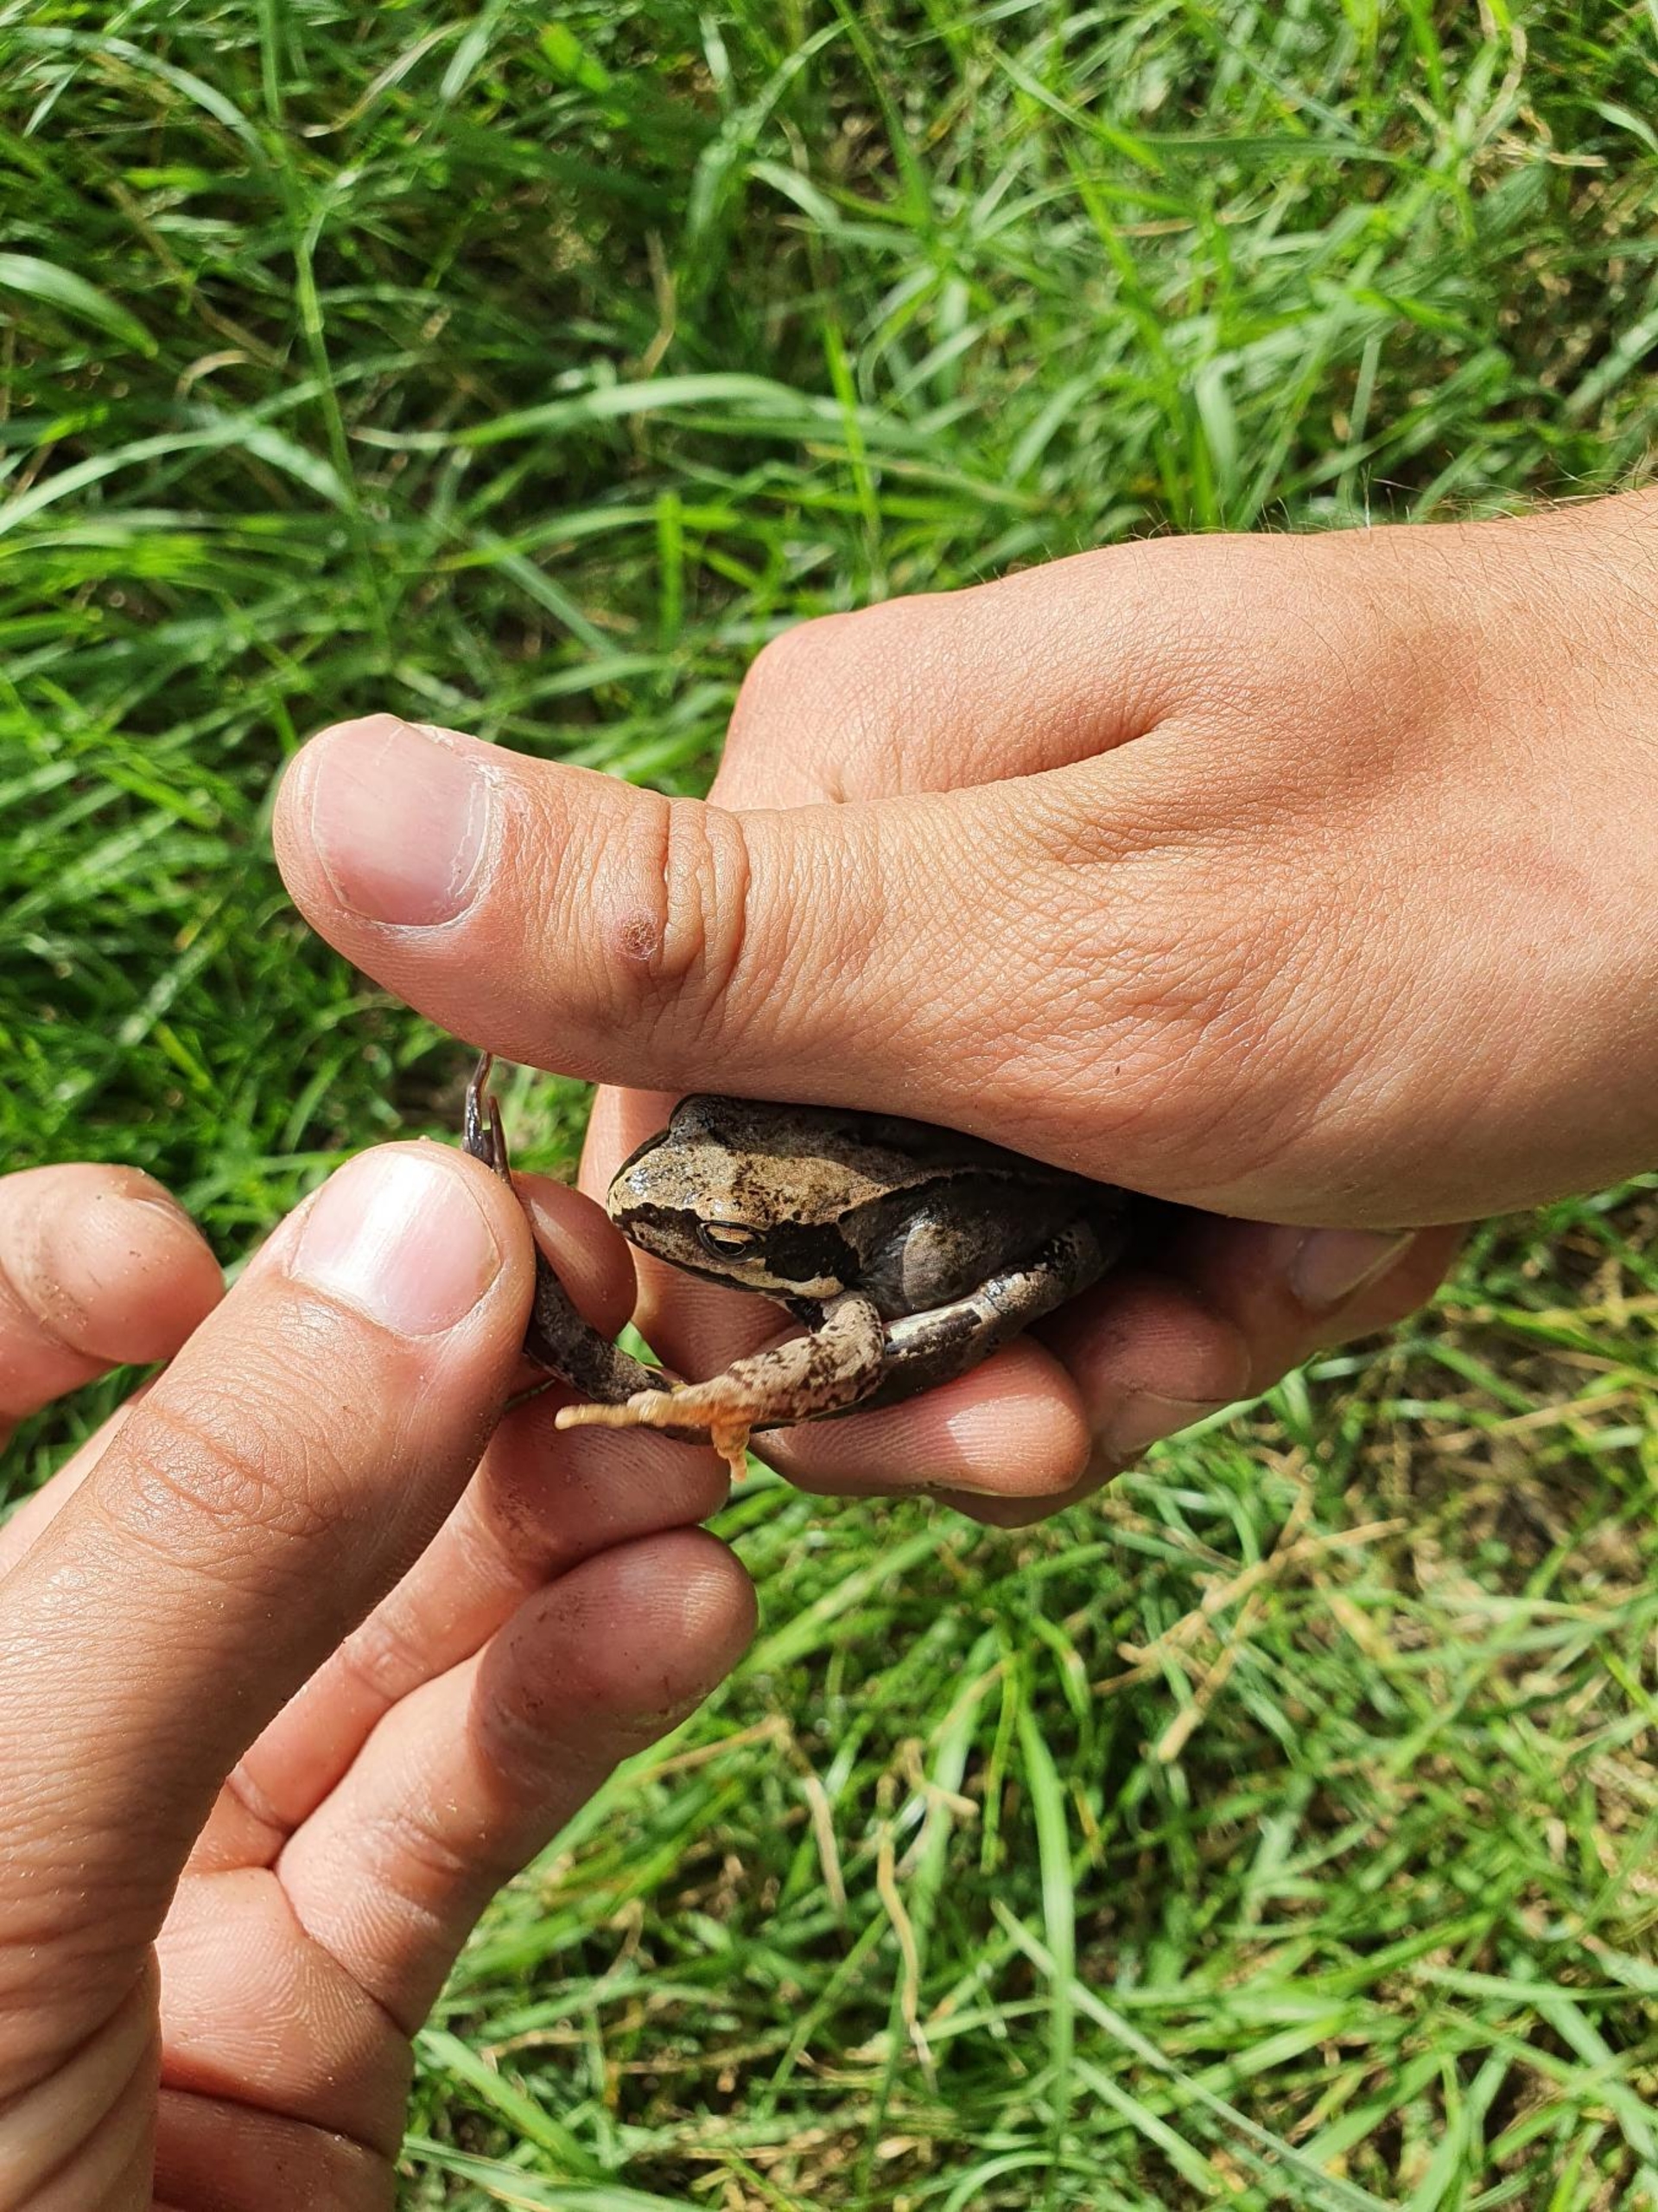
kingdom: Animalia
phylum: Chordata
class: Amphibia
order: Anura
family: Ranidae
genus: Rana
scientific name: Rana temporaria
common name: Butsnudet frø
